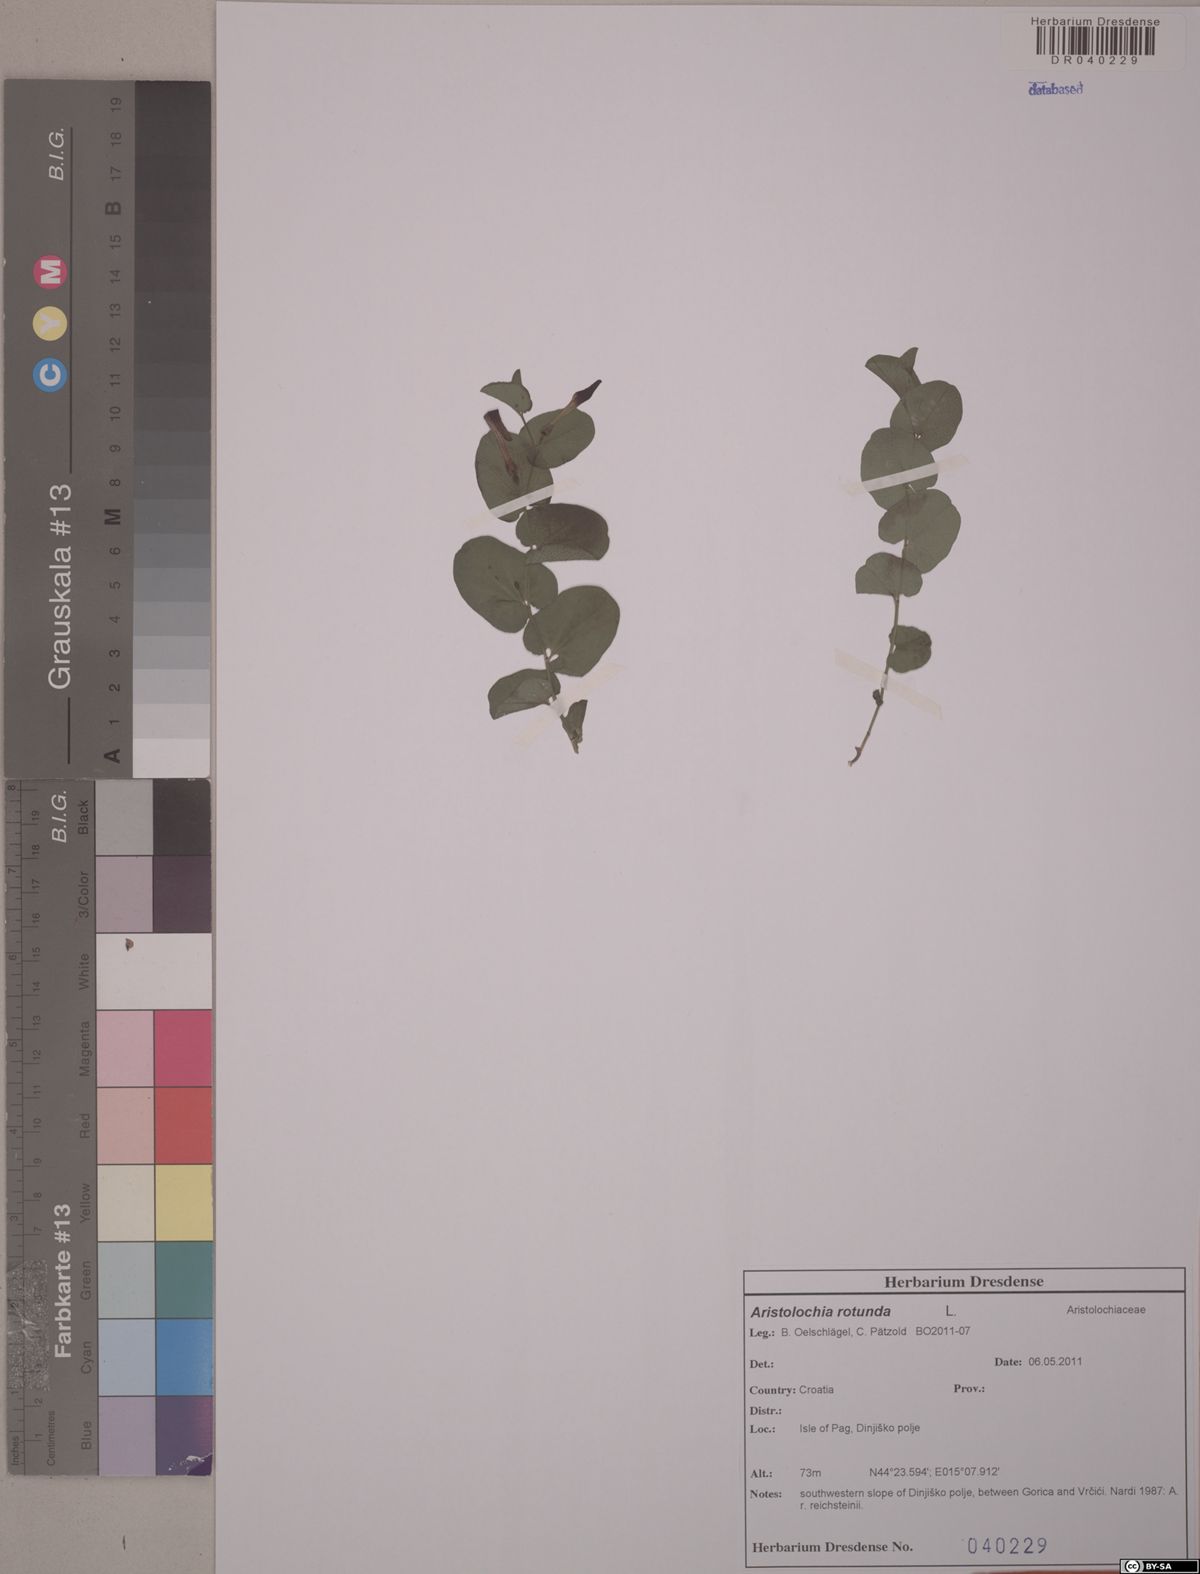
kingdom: Plantae
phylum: Tracheophyta
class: Magnoliopsida
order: Piperales
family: Aristolochiaceae
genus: Aristolochia
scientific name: Aristolochia rotunda
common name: Smearwort
